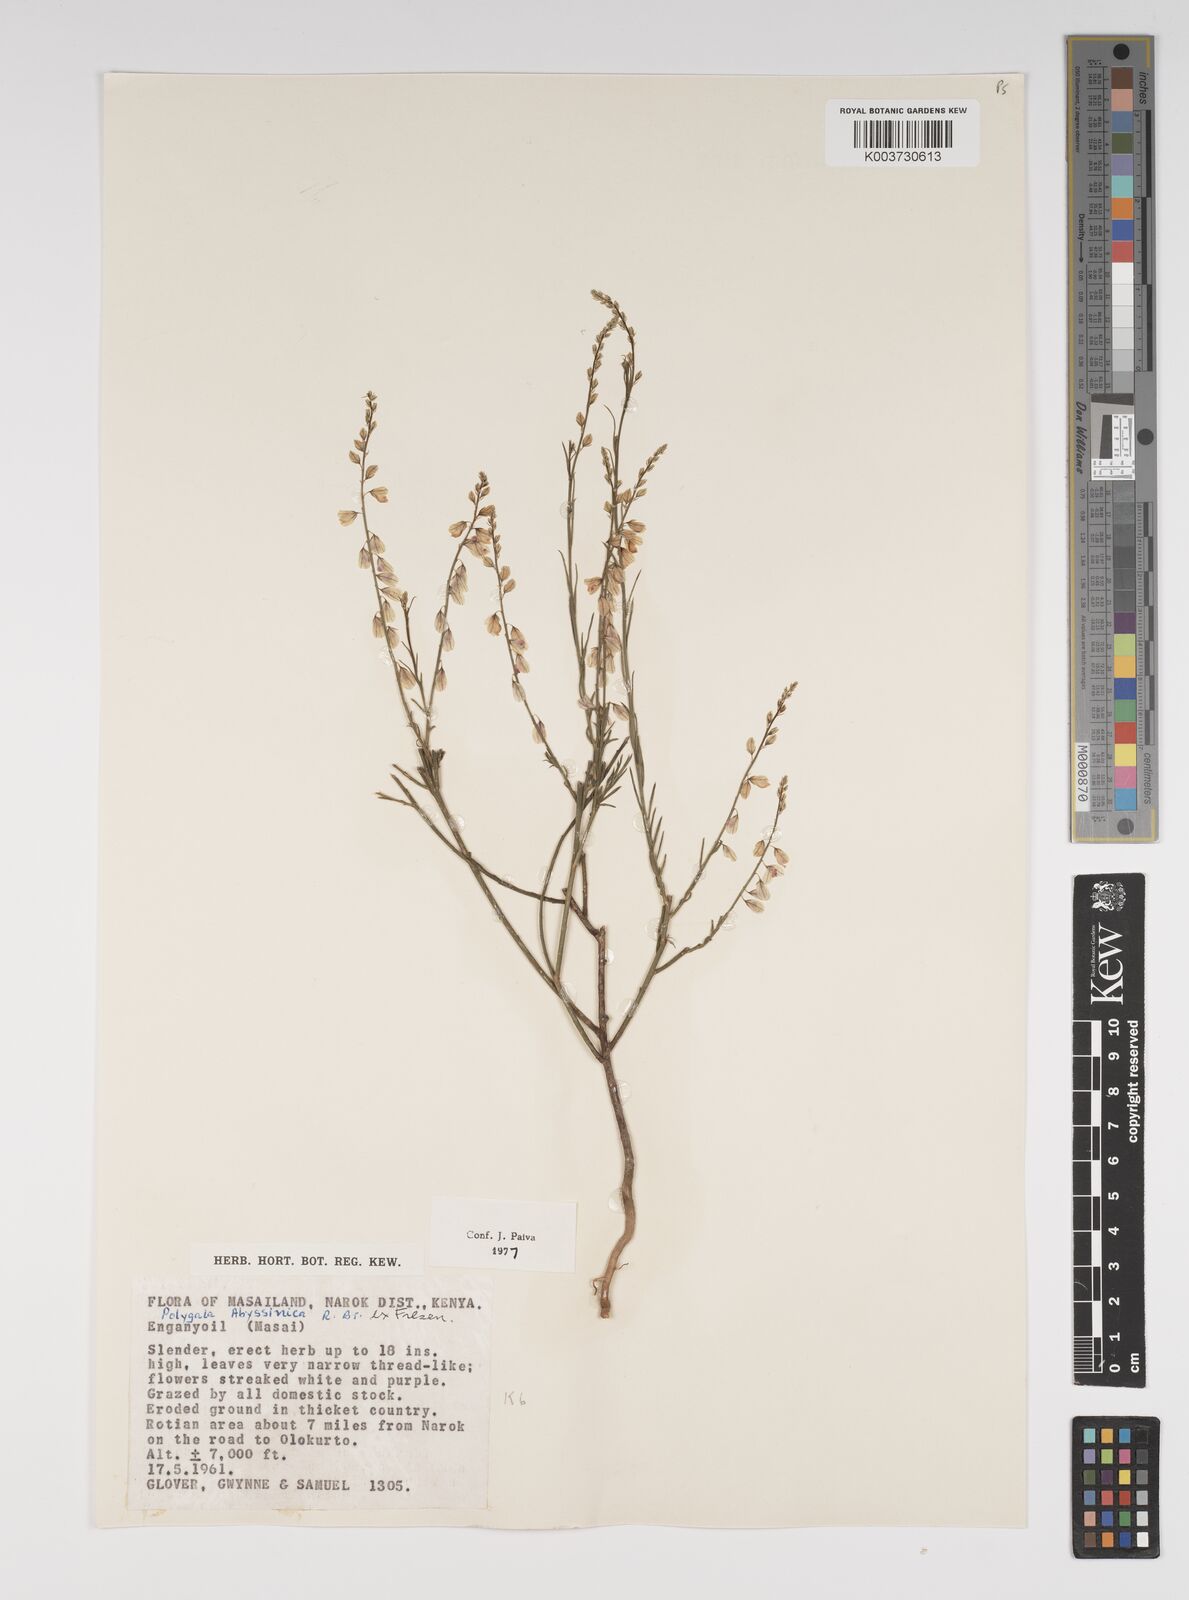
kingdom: Plantae
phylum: Tracheophyta
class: Magnoliopsida
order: Fabales
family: Polygalaceae
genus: Polygala
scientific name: Polygala abyssinica
